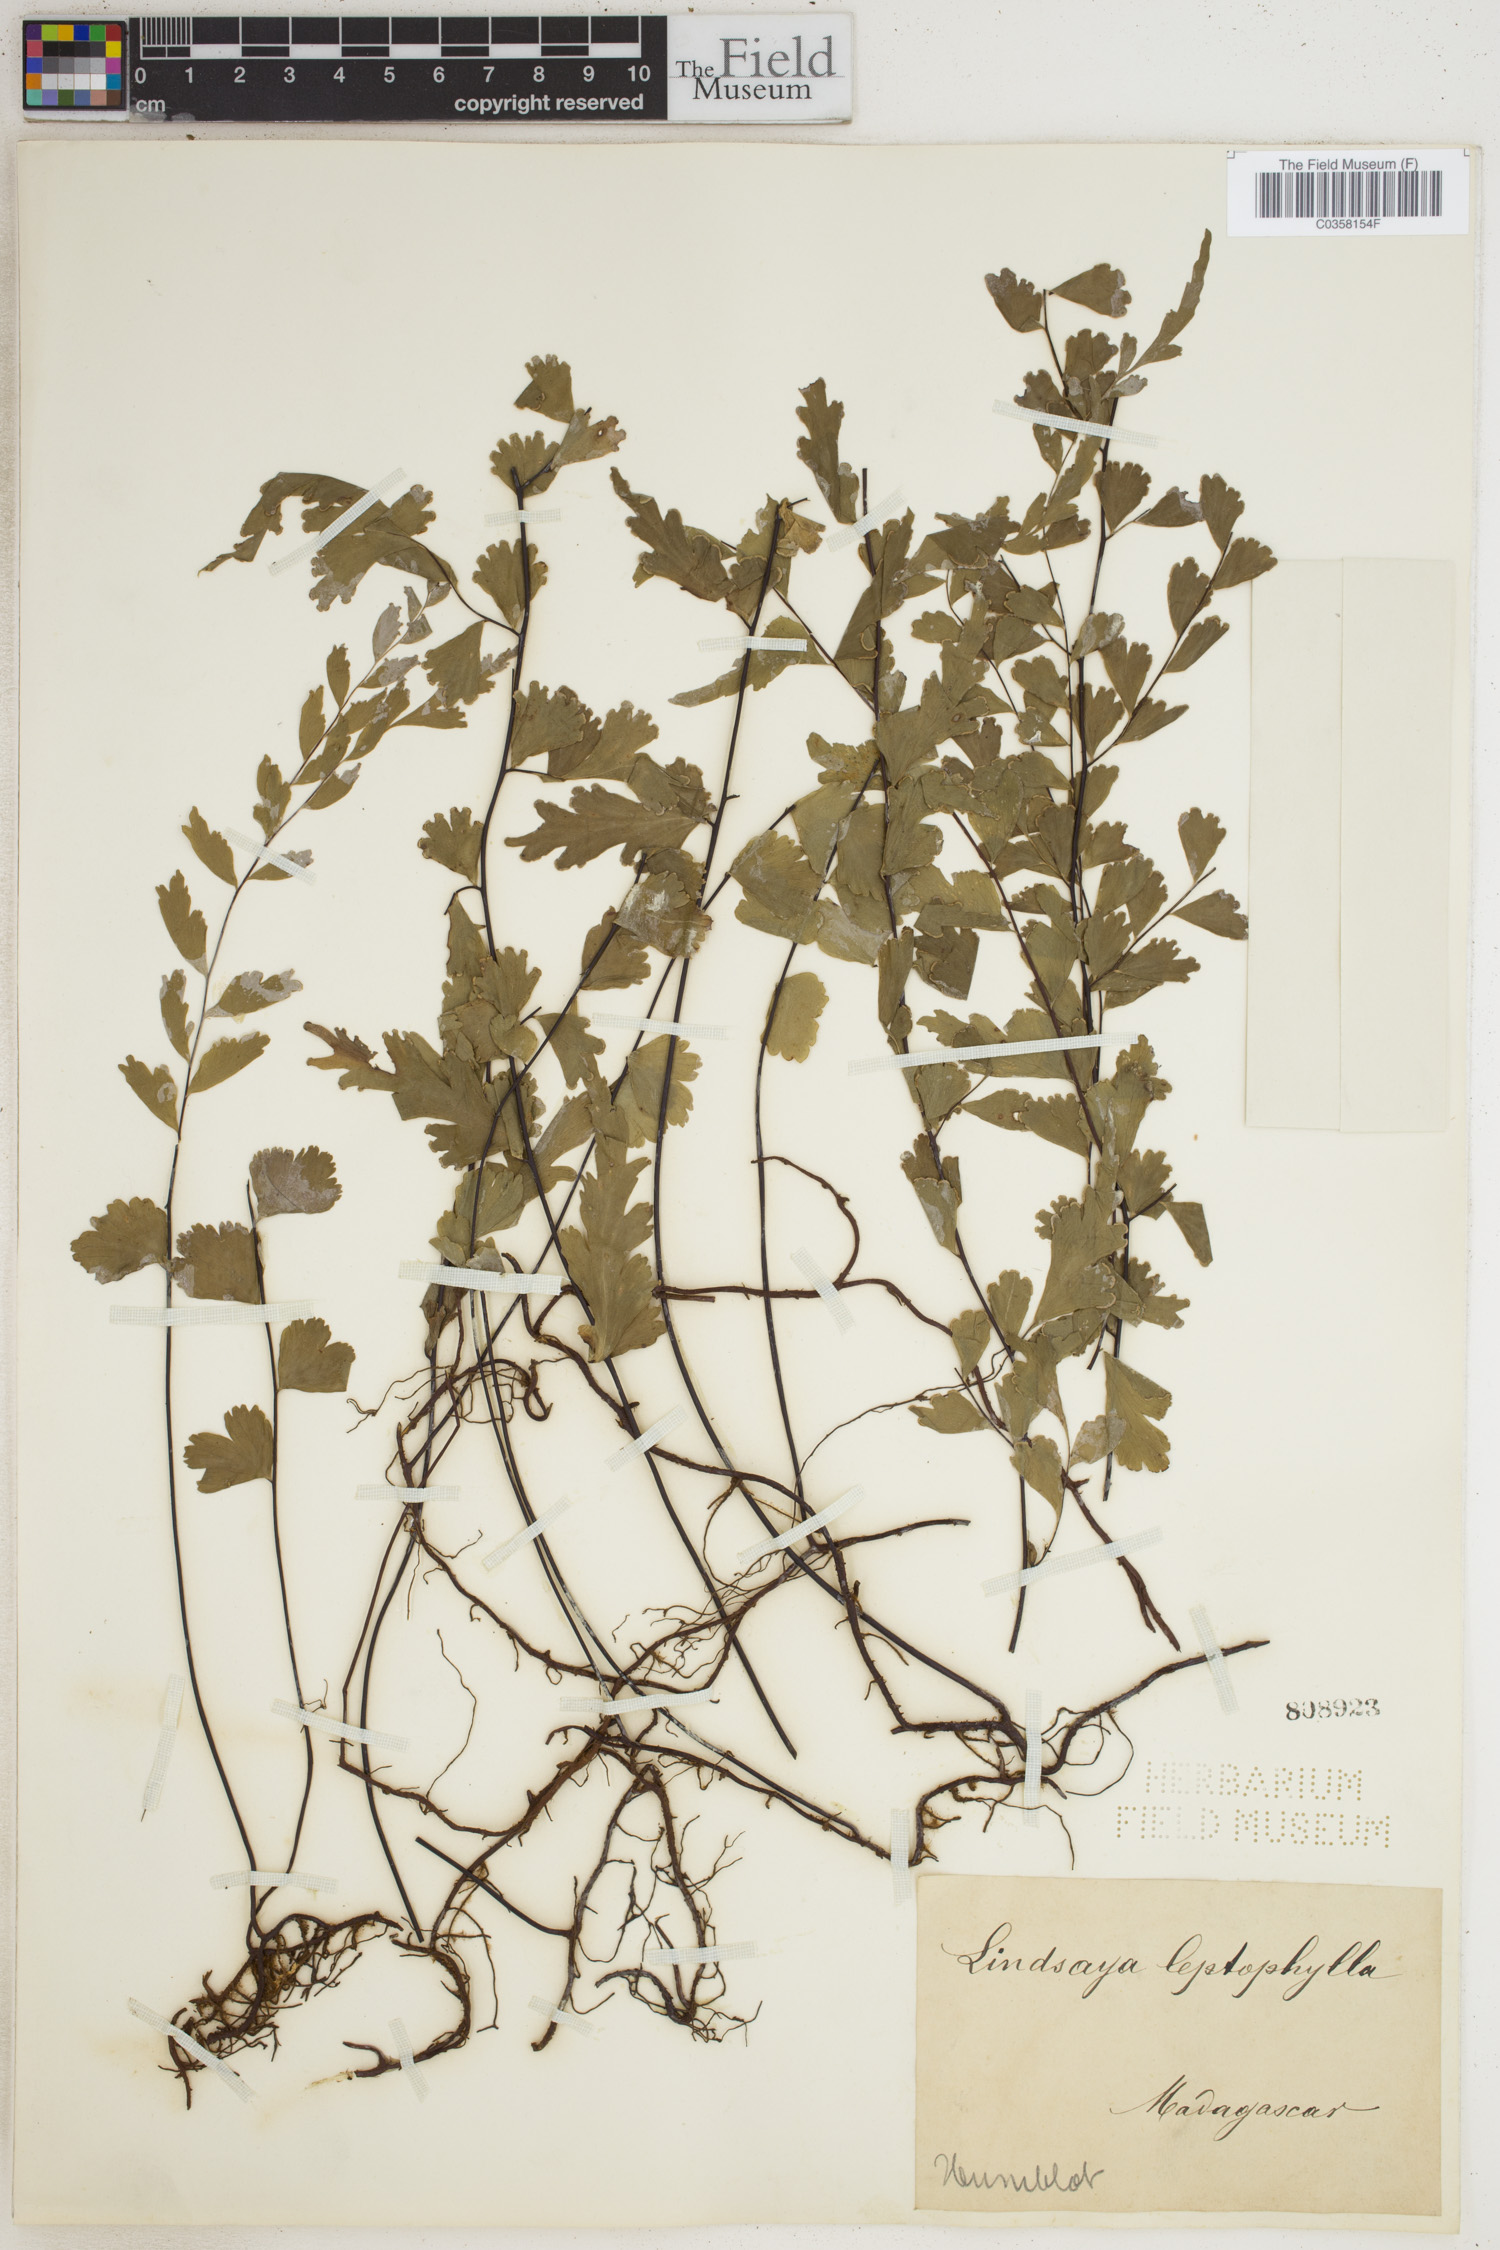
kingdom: Plantae
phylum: Tracheophyta
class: Polypodiopsida
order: Polypodiales
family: Lindsaeaceae
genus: Lindsaea
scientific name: Lindsaea leptophylla
